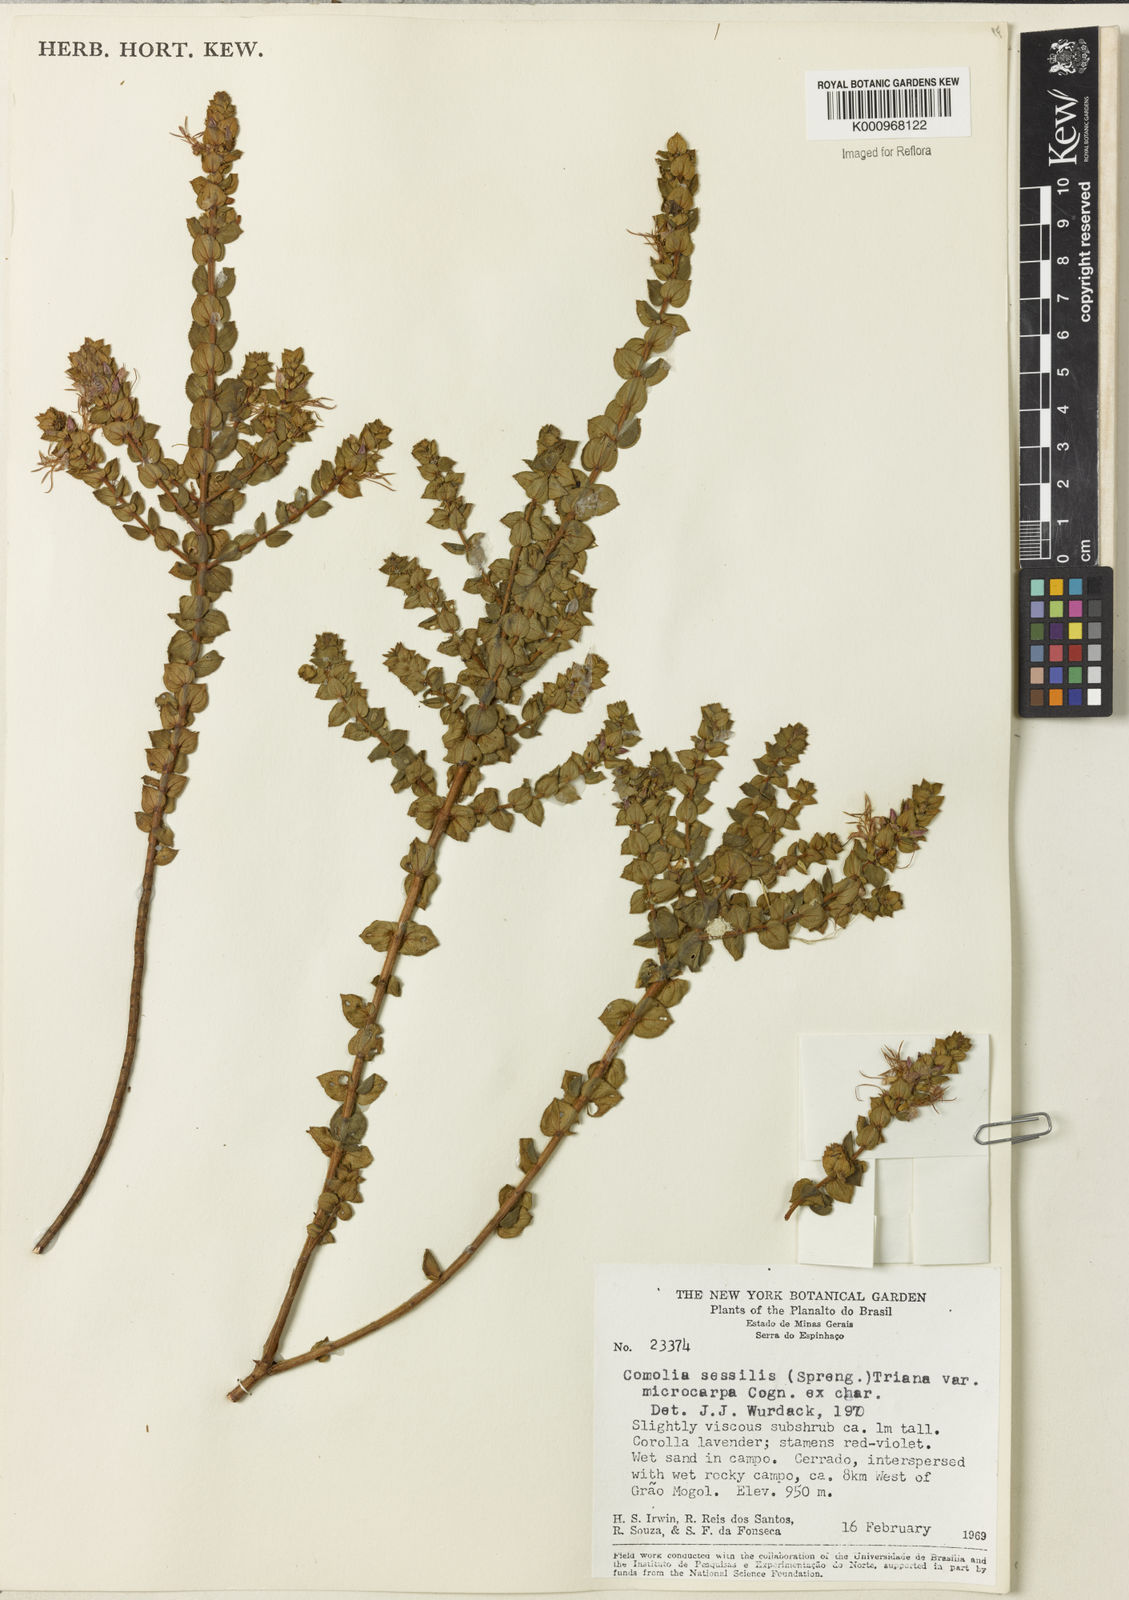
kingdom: Plantae
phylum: Tracheophyta
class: Magnoliopsida
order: Myrtales
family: Melastomataceae
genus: Fritzschia
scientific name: Fritzschia sessilis
